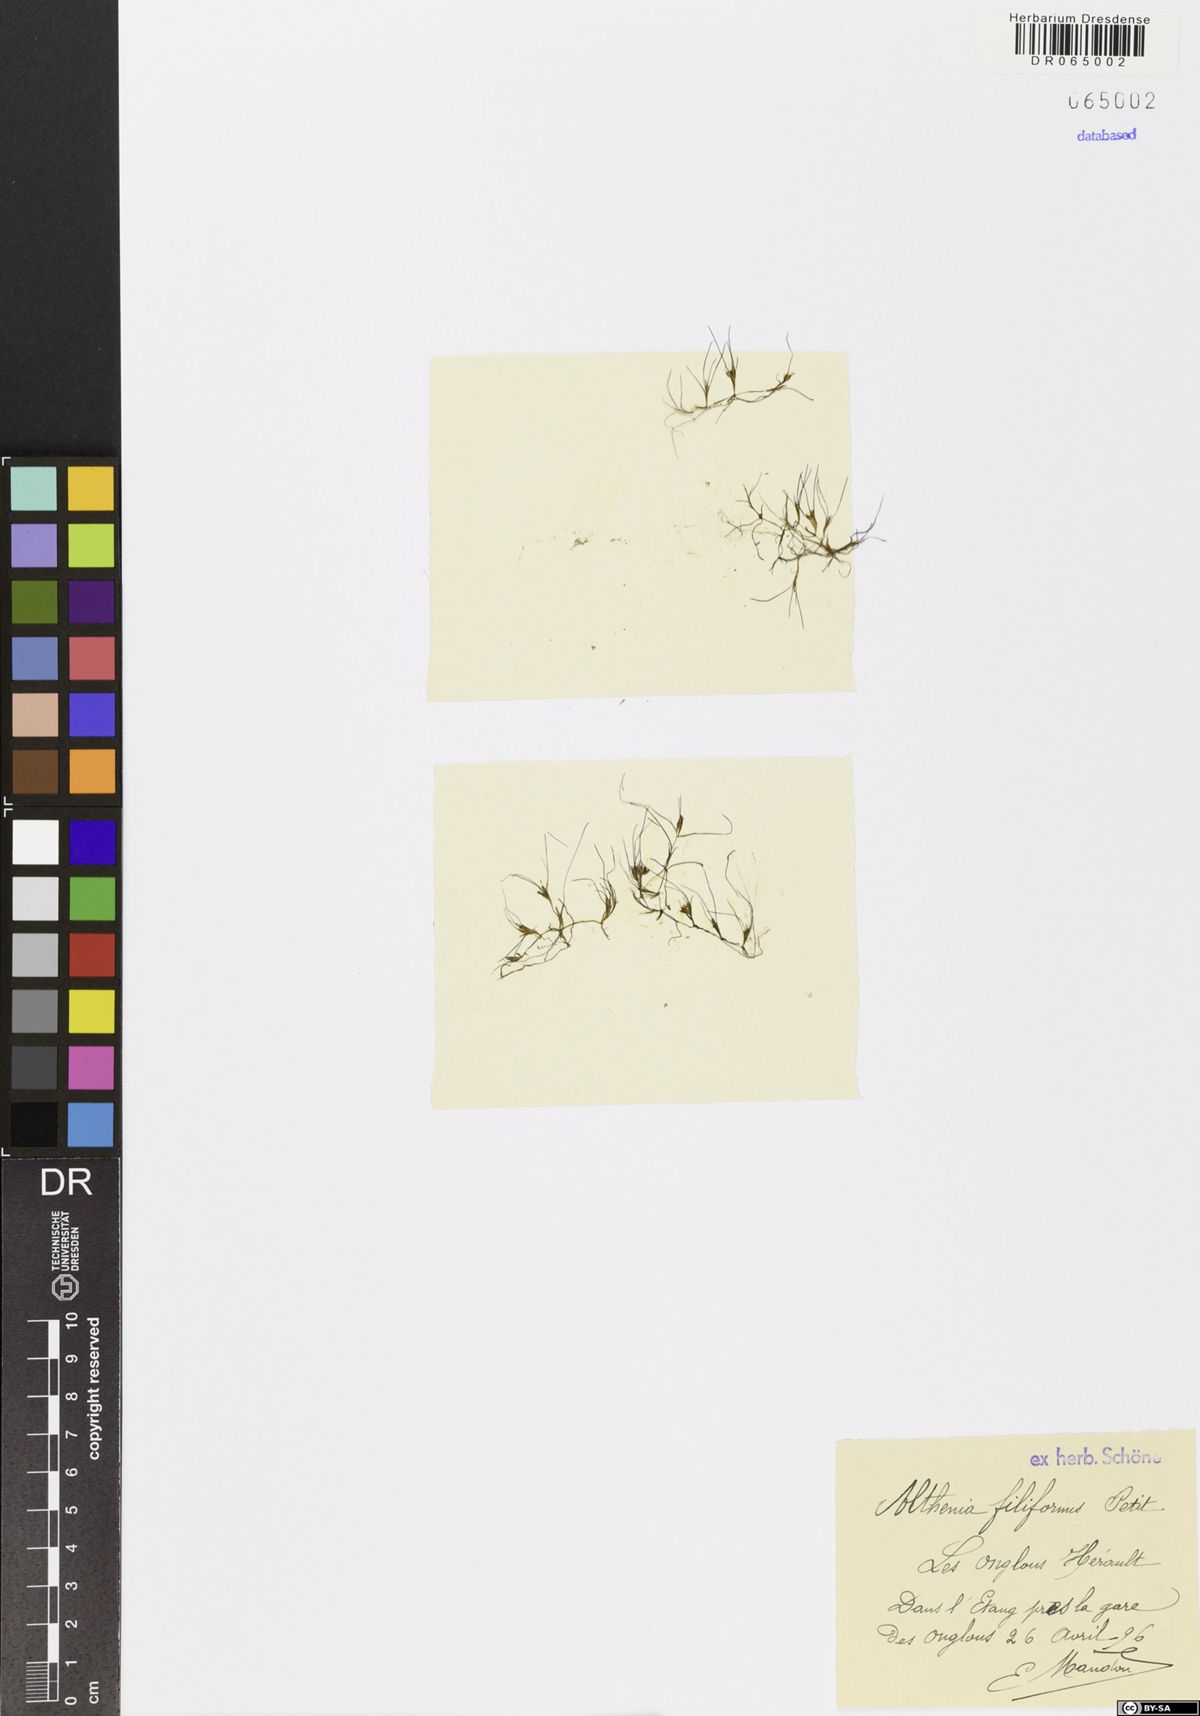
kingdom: Plantae
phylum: Tracheophyta
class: Liliopsida
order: Alismatales
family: Potamogetonaceae
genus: Althenia
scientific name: Althenia filiformis
